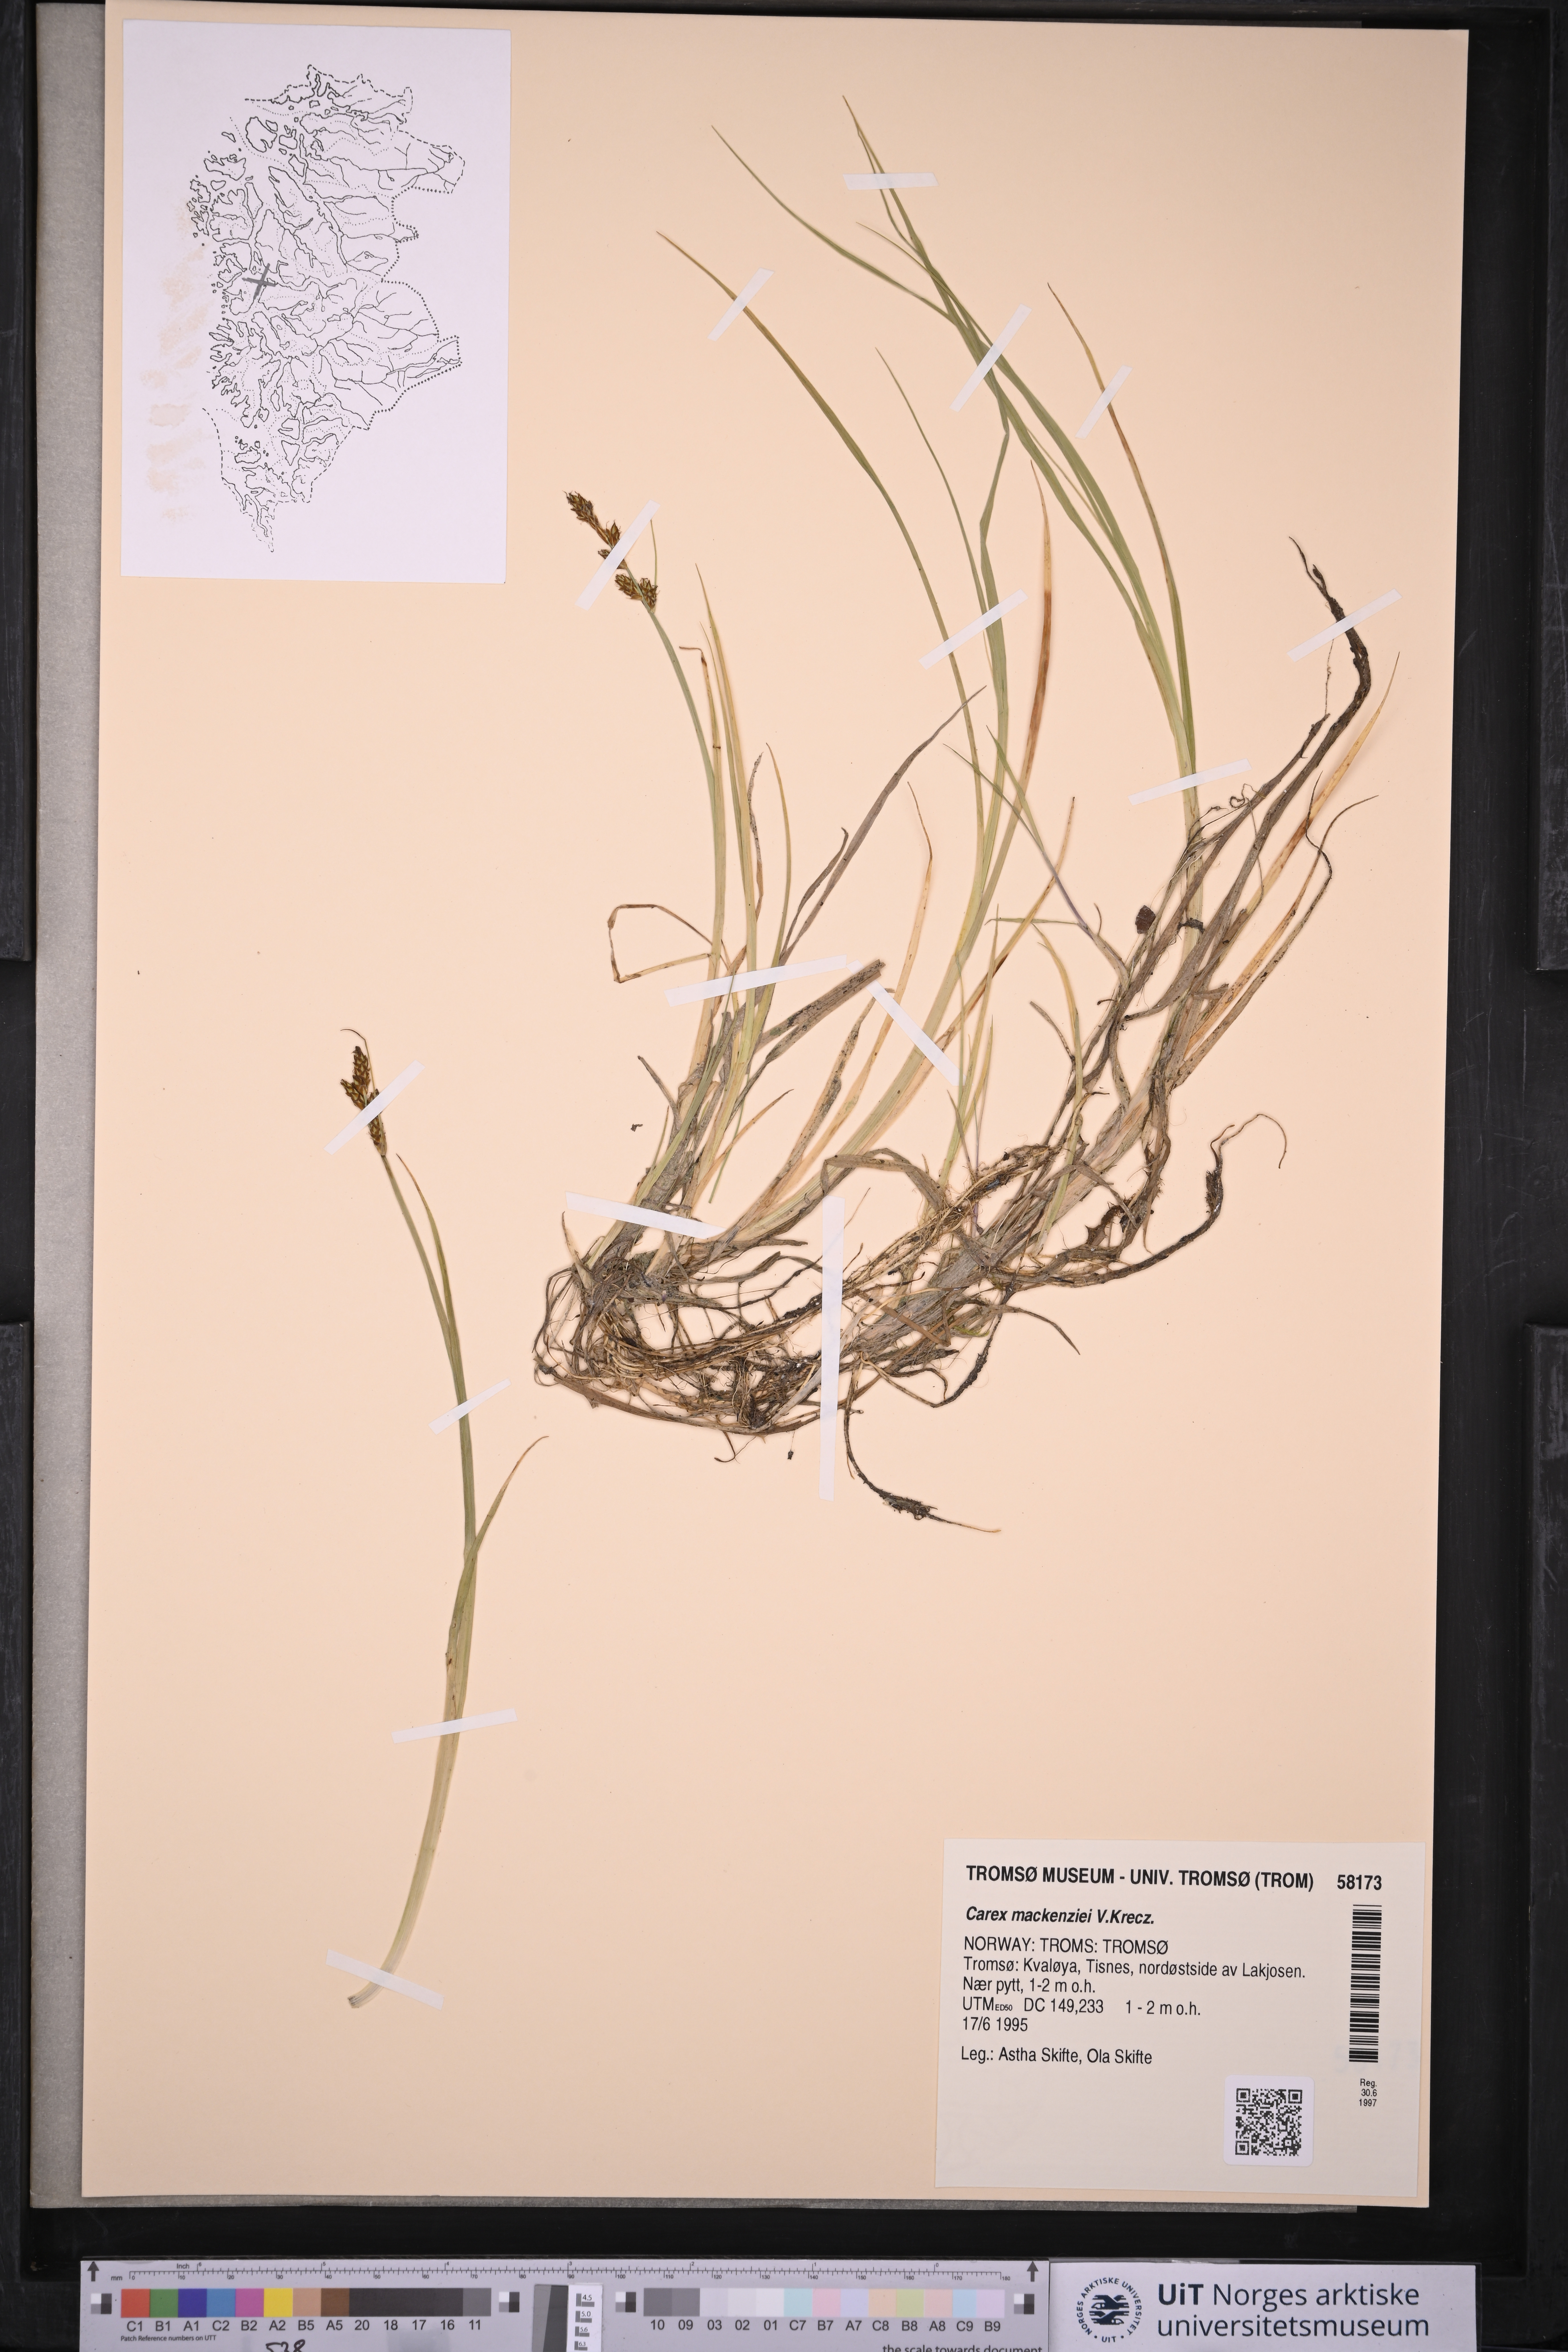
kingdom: Plantae
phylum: Tracheophyta
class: Liliopsida
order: Poales
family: Cyperaceae
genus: Carex
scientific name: Carex mackenziei
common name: Mackenzie's sedge
